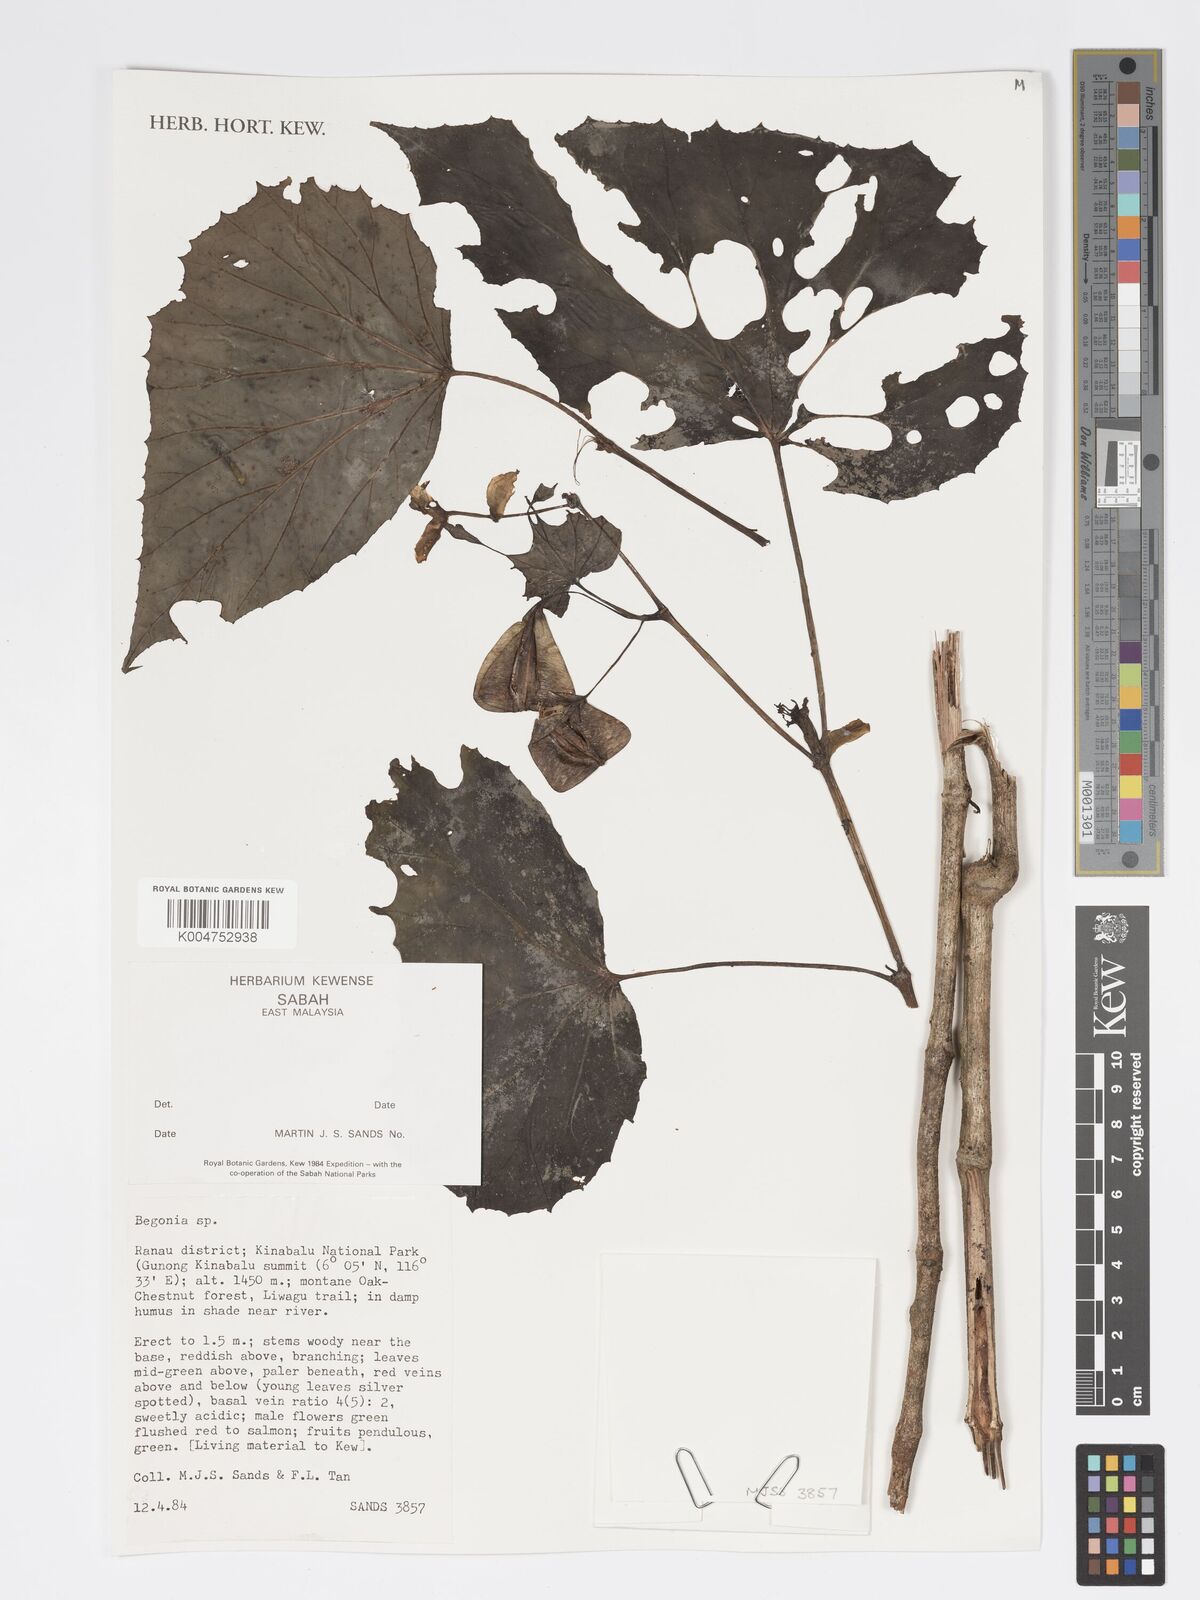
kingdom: Plantae
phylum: Tracheophyta
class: Magnoliopsida
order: Cucurbitales
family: Begoniaceae
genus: Begonia
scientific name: Begonia
